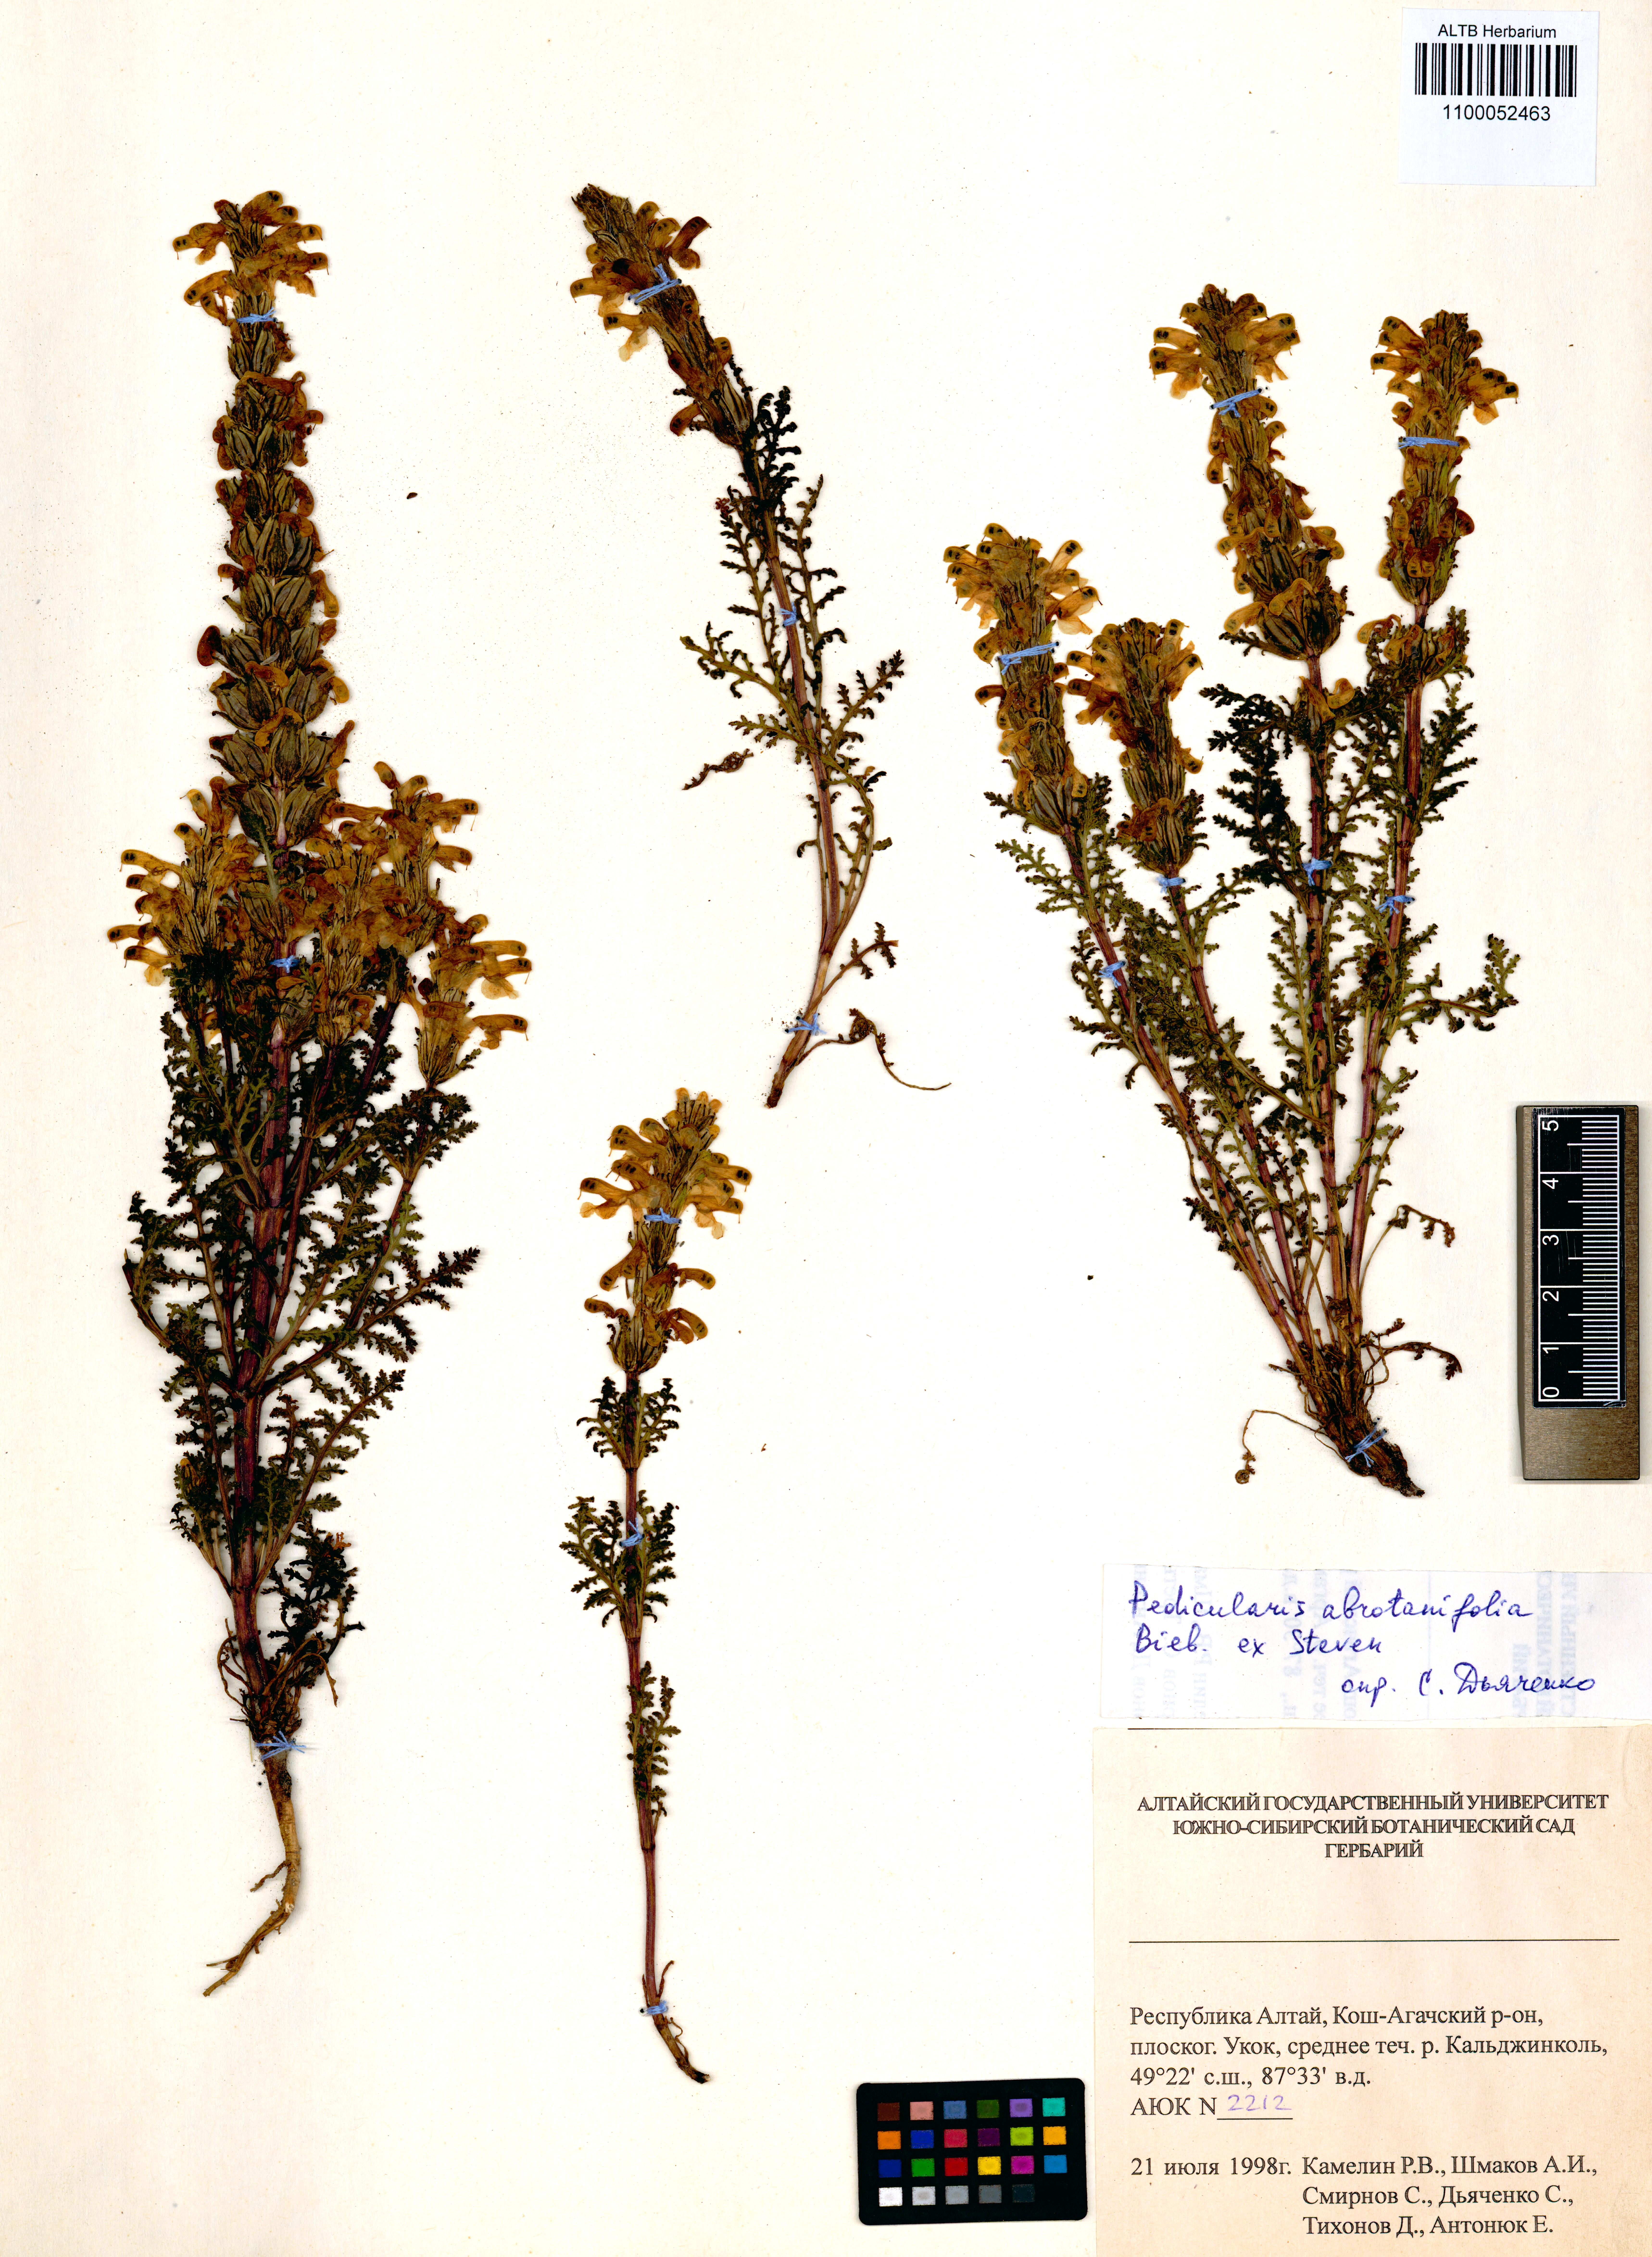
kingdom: Plantae
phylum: Tracheophyta
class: Magnoliopsida
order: Lamiales
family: Orobanchaceae
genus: Pedicularis
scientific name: Pedicularis abrotanifolia
